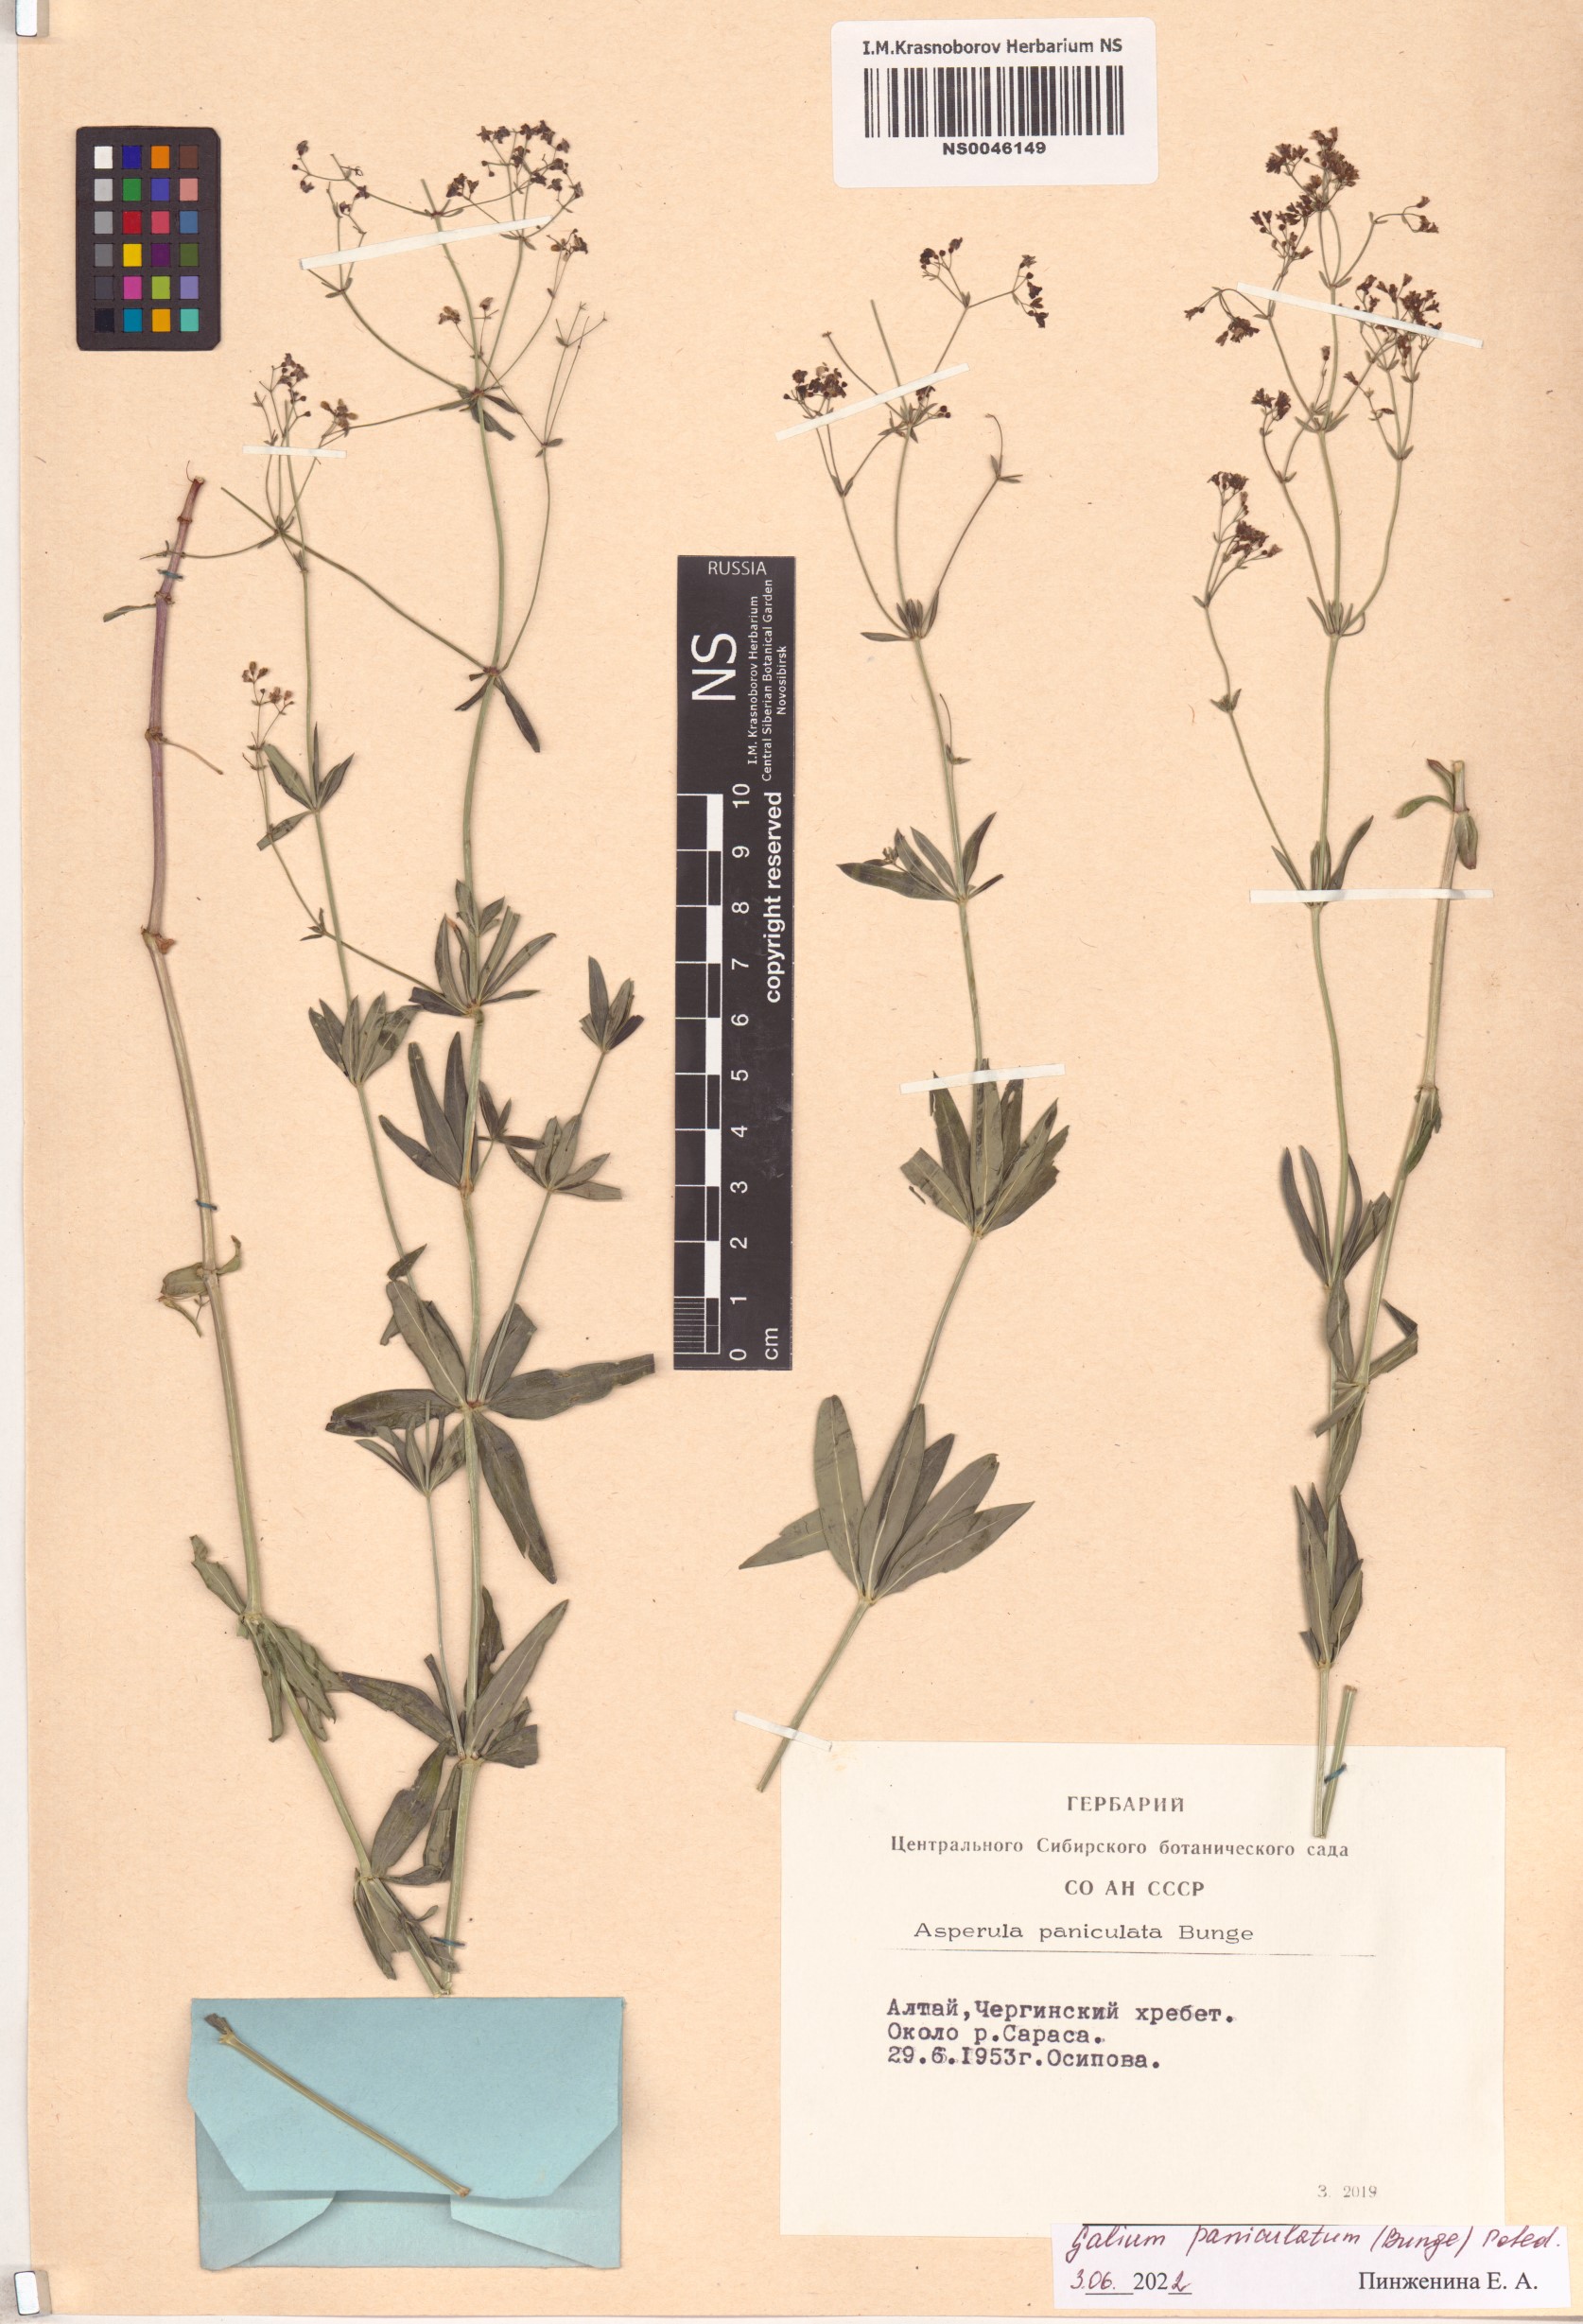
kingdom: Plantae
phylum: Tracheophyta
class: Magnoliopsida
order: Gentianales
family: Rubiaceae
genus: Galium
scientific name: Galium paniculatum
